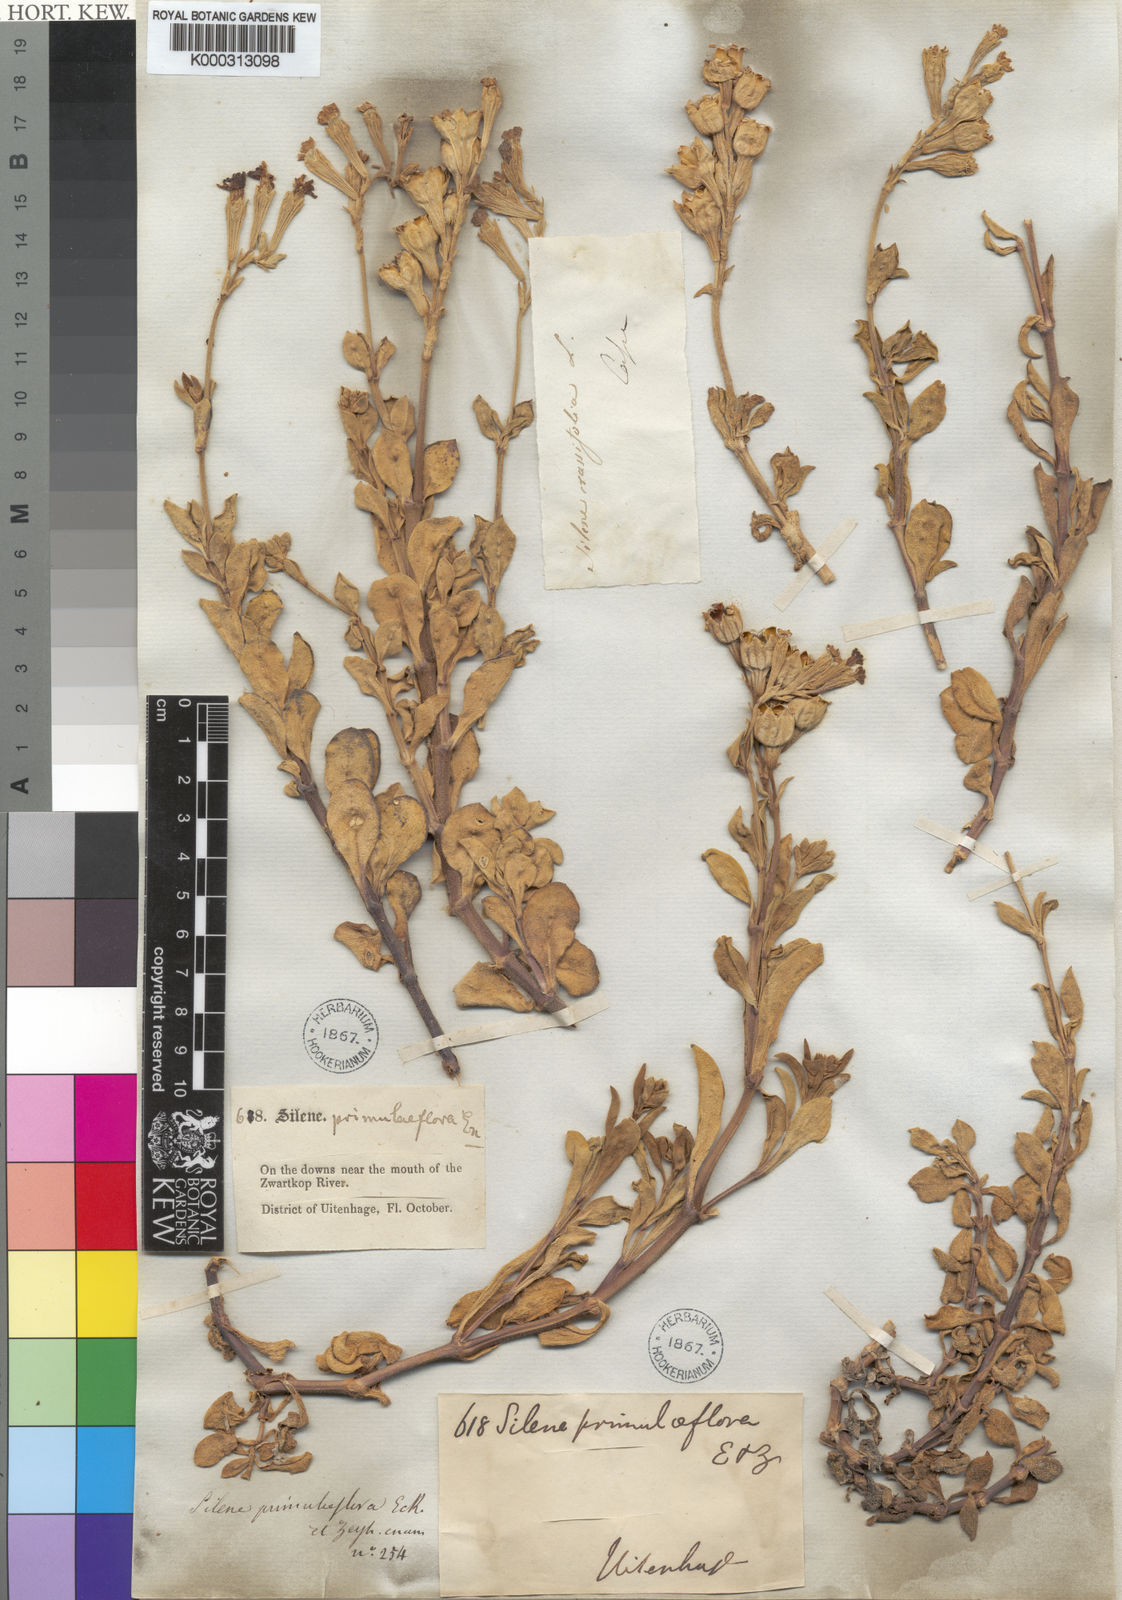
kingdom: Plantae
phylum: Tracheophyta
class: Magnoliopsida
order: Caryophyllales
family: Caryophyllaceae
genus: Silene
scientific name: Silene crassifolia
